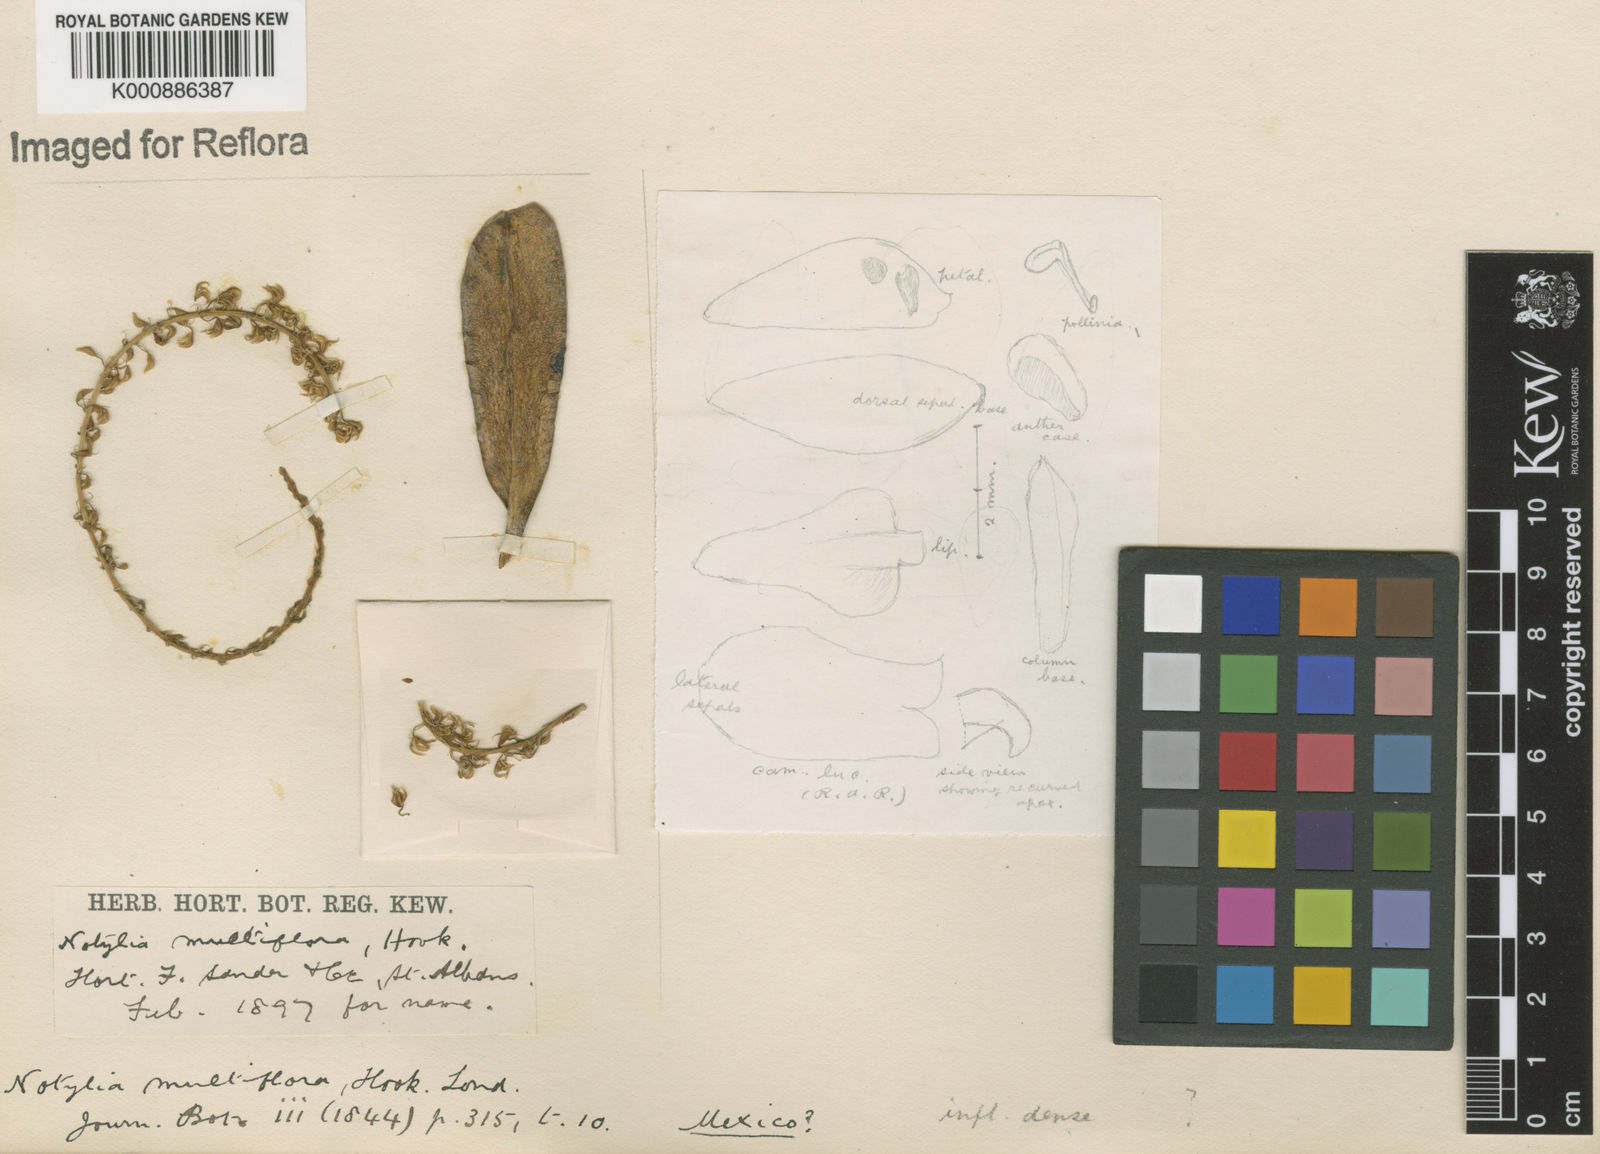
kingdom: Plantae
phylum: Tracheophyta
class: Liliopsida
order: Asparagales
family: Orchidaceae
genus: Notylia
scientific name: Notylia sagittifera
